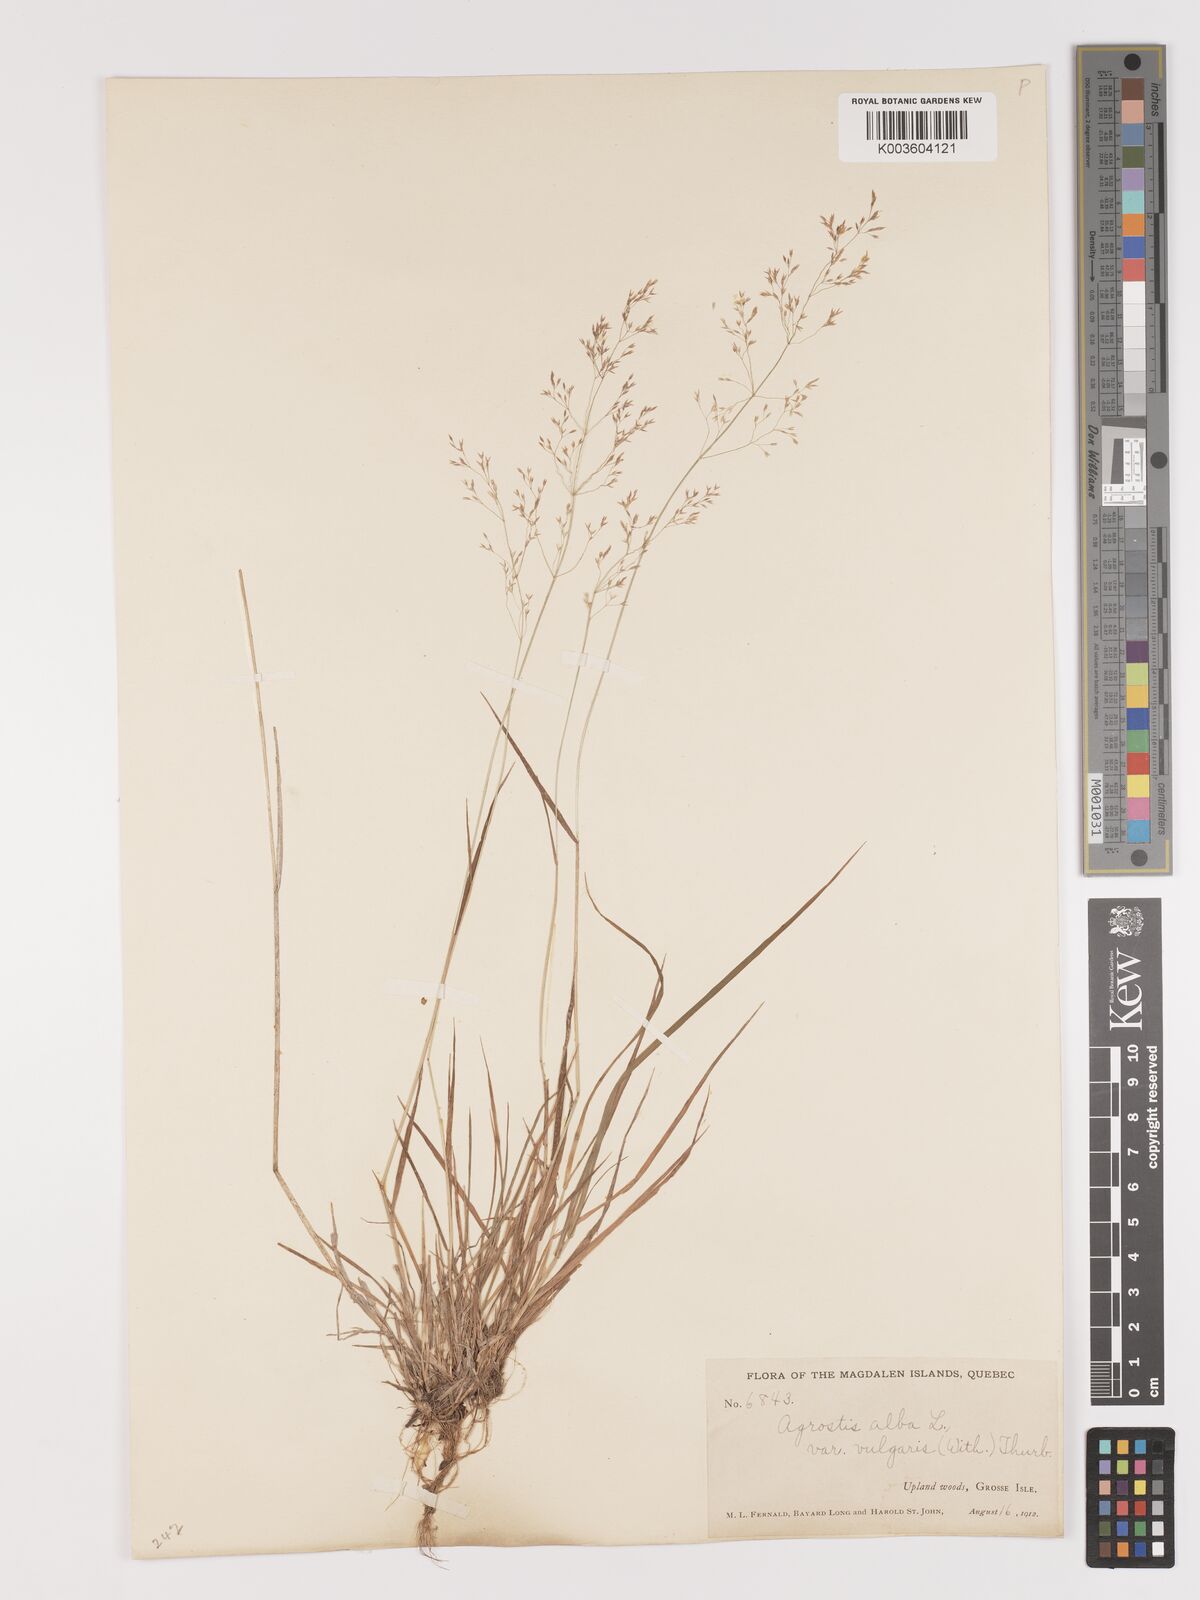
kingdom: Plantae
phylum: Tracheophyta
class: Liliopsida
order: Poales
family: Poaceae
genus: Agrostis
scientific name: Agrostis capillaris
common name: Colonial bentgrass
